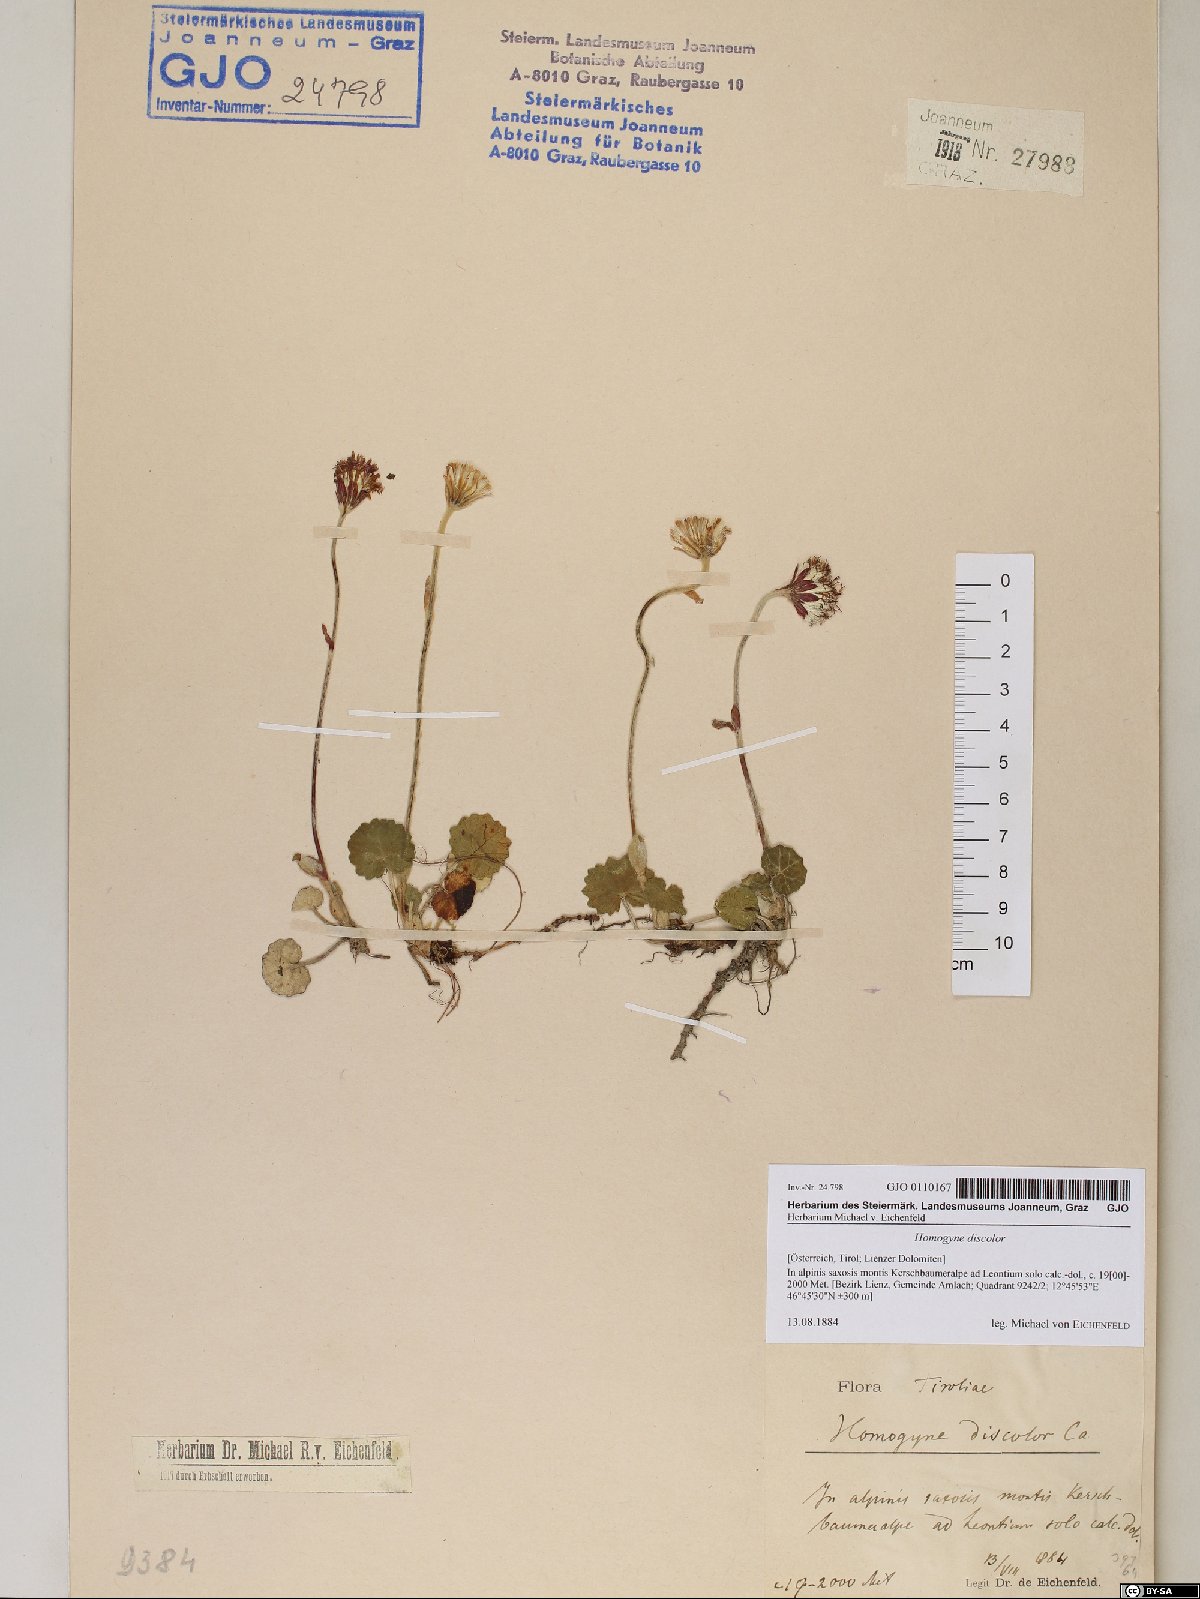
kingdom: Plantae
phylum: Tracheophyta
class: Magnoliopsida
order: Asterales
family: Asteraceae
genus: Homogyne
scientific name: Homogyne discolor
